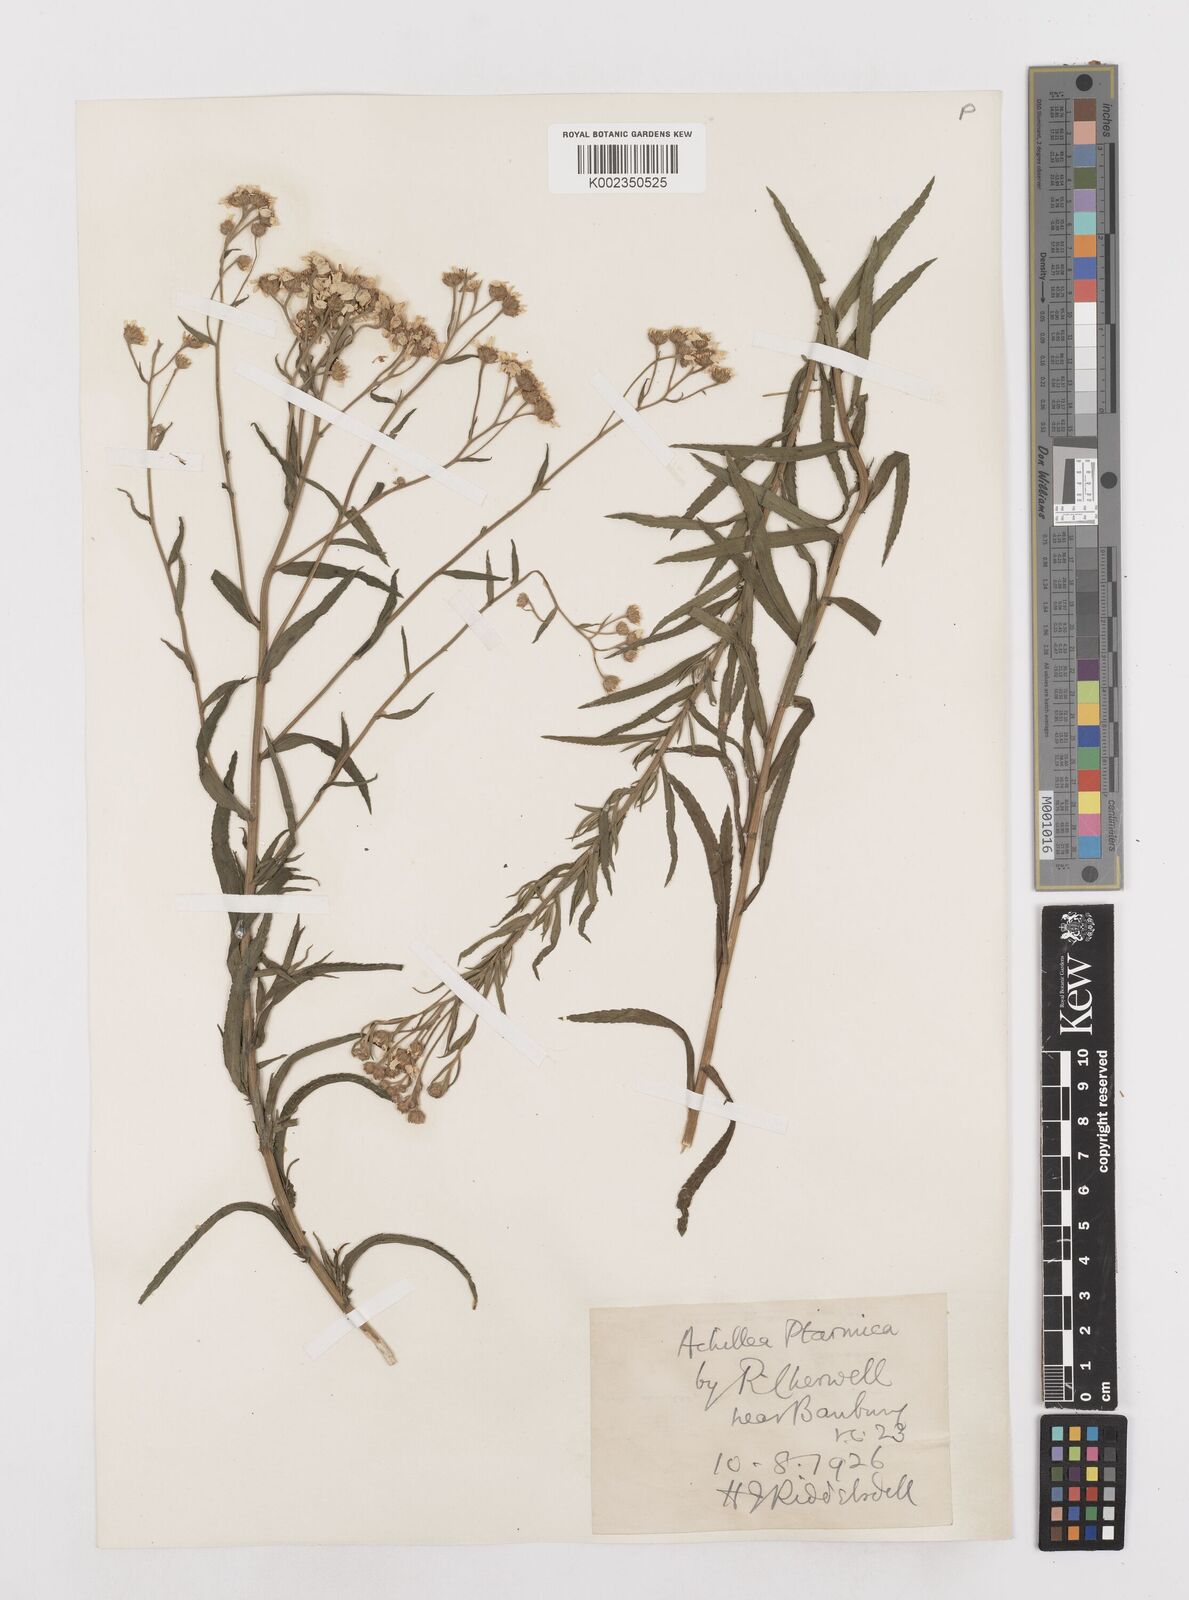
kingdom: Plantae
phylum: Tracheophyta
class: Magnoliopsida
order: Asterales
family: Asteraceae
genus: Achillea
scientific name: Achillea ptarmica
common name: Sneezeweed
